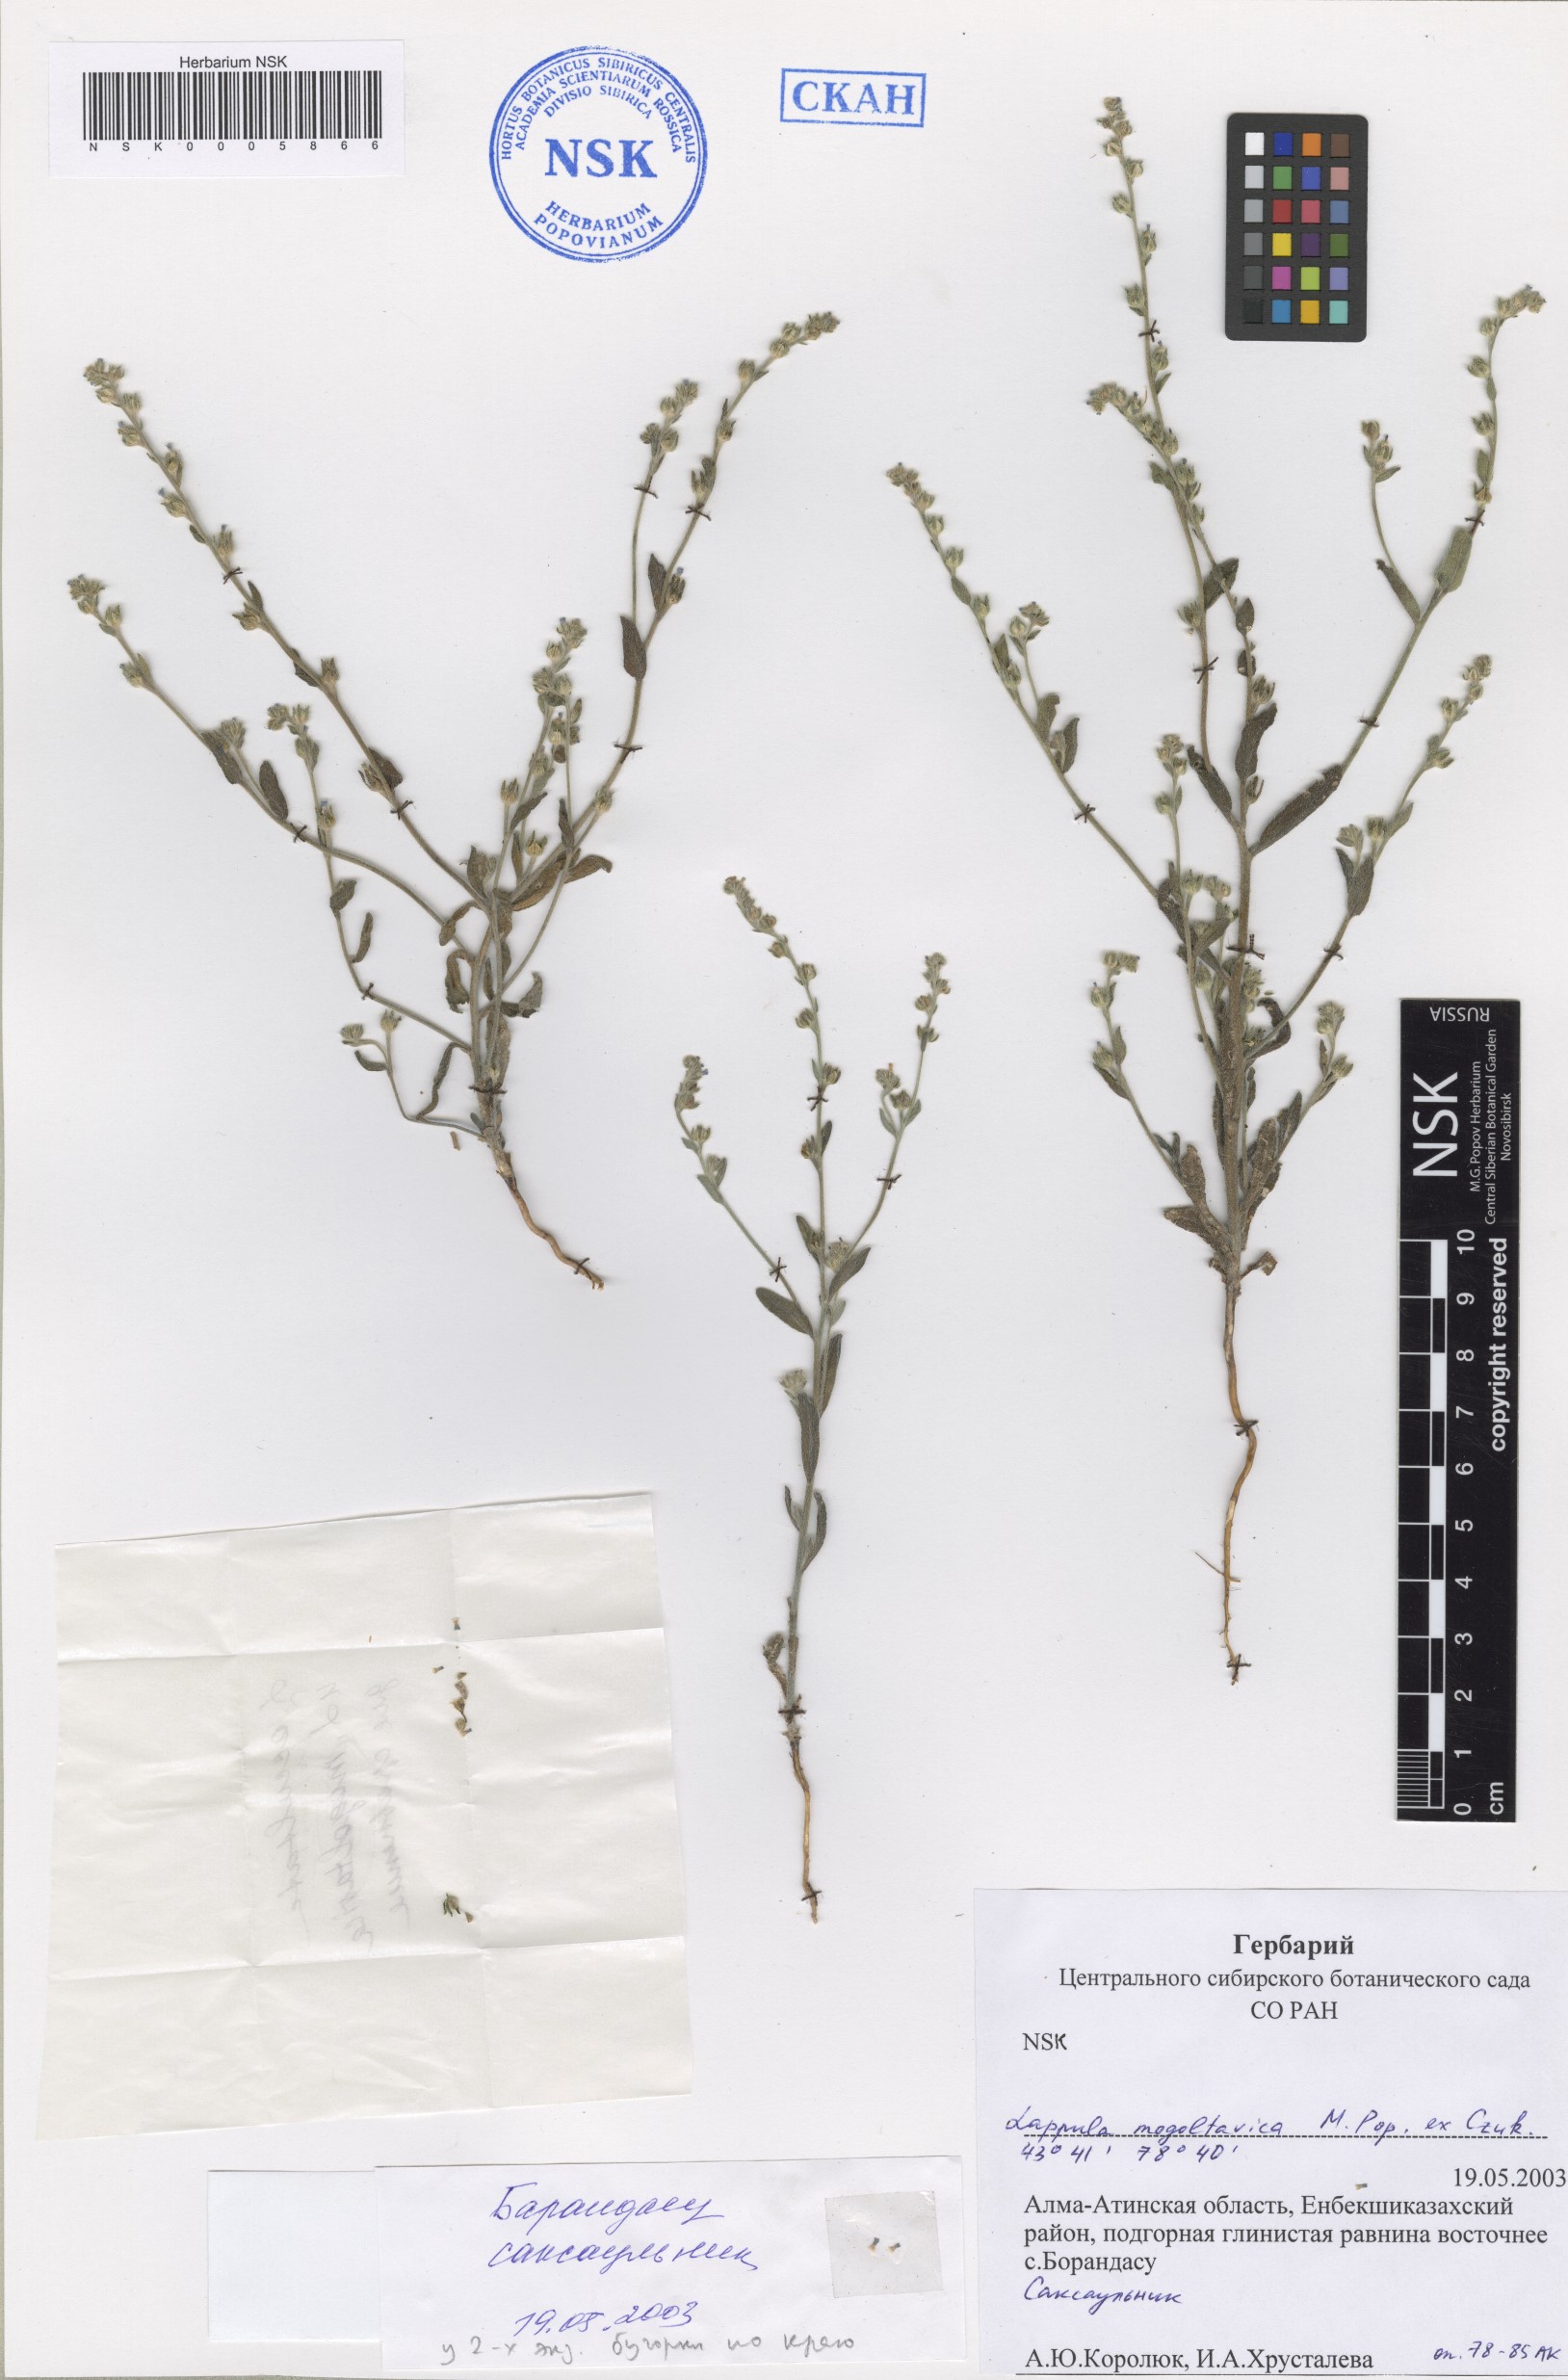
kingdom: Plantae
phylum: Tracheophyta
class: Magnoliopsida
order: Boraginales
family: Boraginaceae
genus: Lappula
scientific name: Lappula mogoltavica
